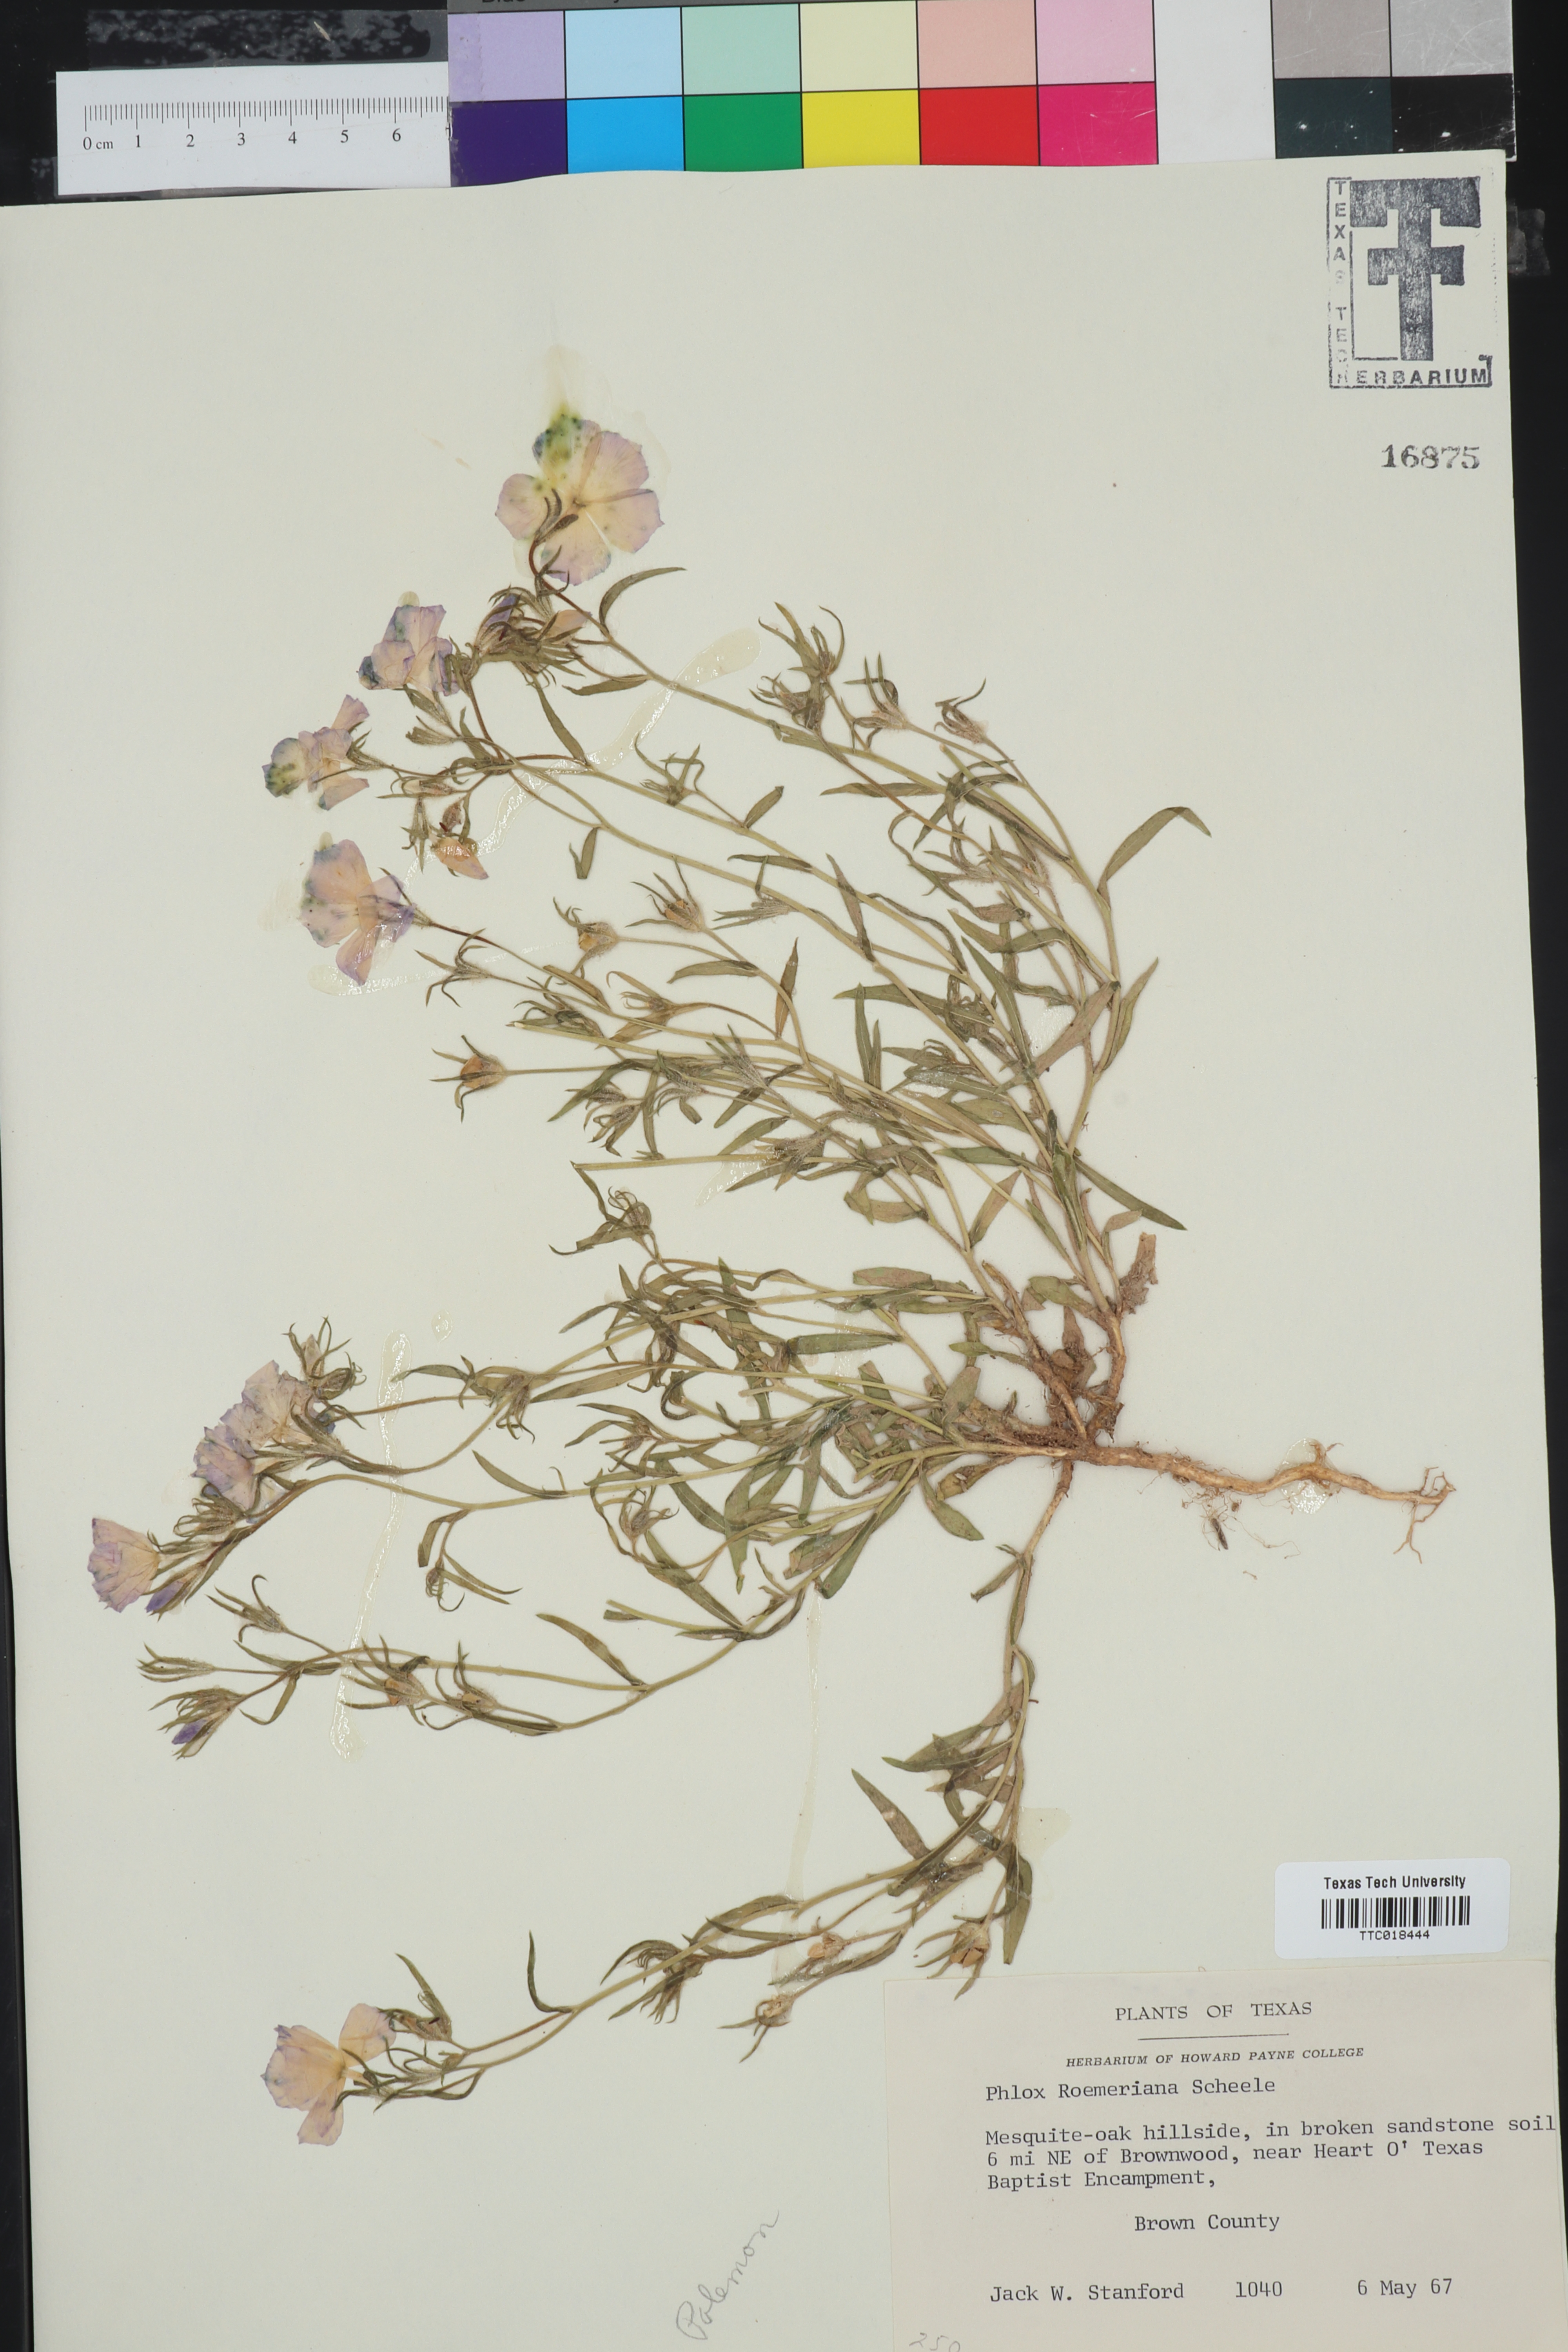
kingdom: Plantae
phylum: Tracheophyta
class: Magnoliopsida
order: Ericales
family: Polemoniaceae
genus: Phlox
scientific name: Phlox roemeriana
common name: Roemer's phlox
